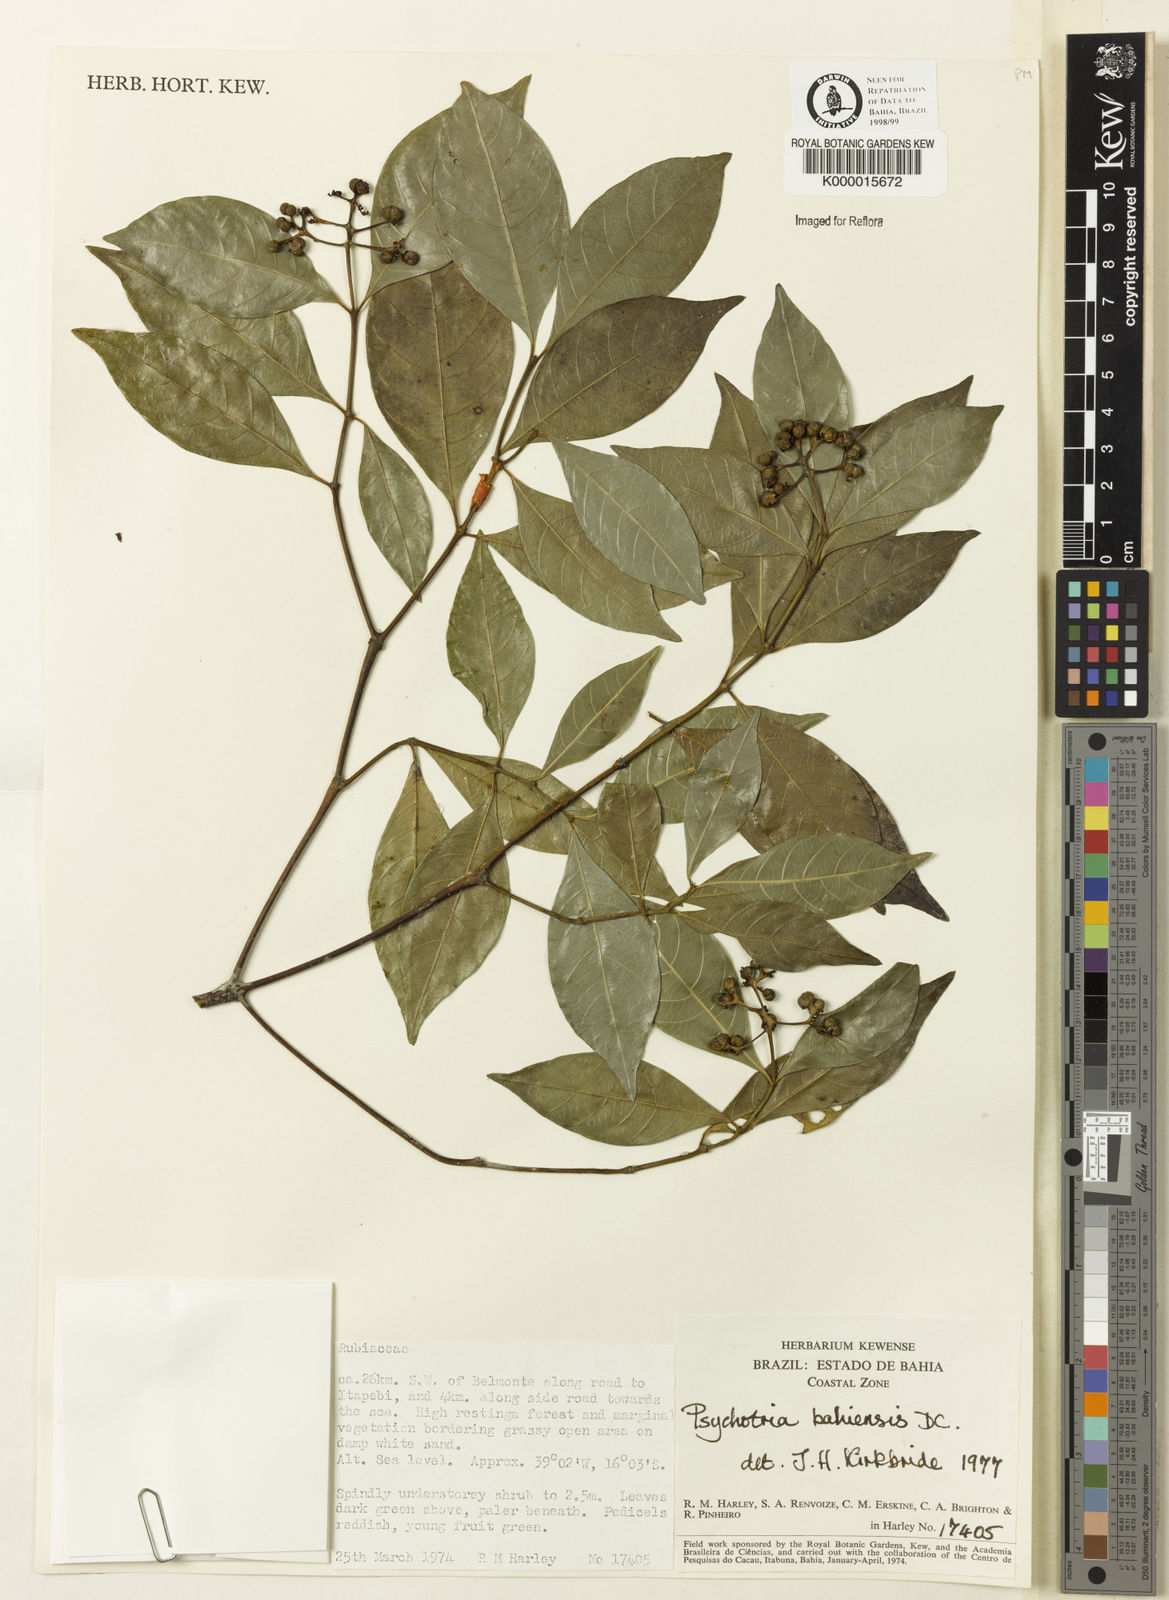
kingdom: Plantae
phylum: Tracheophyta
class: Magnoliopsida
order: Gentianales
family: Rubiaceae
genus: Psychotria
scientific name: Psychotria bahiensis
